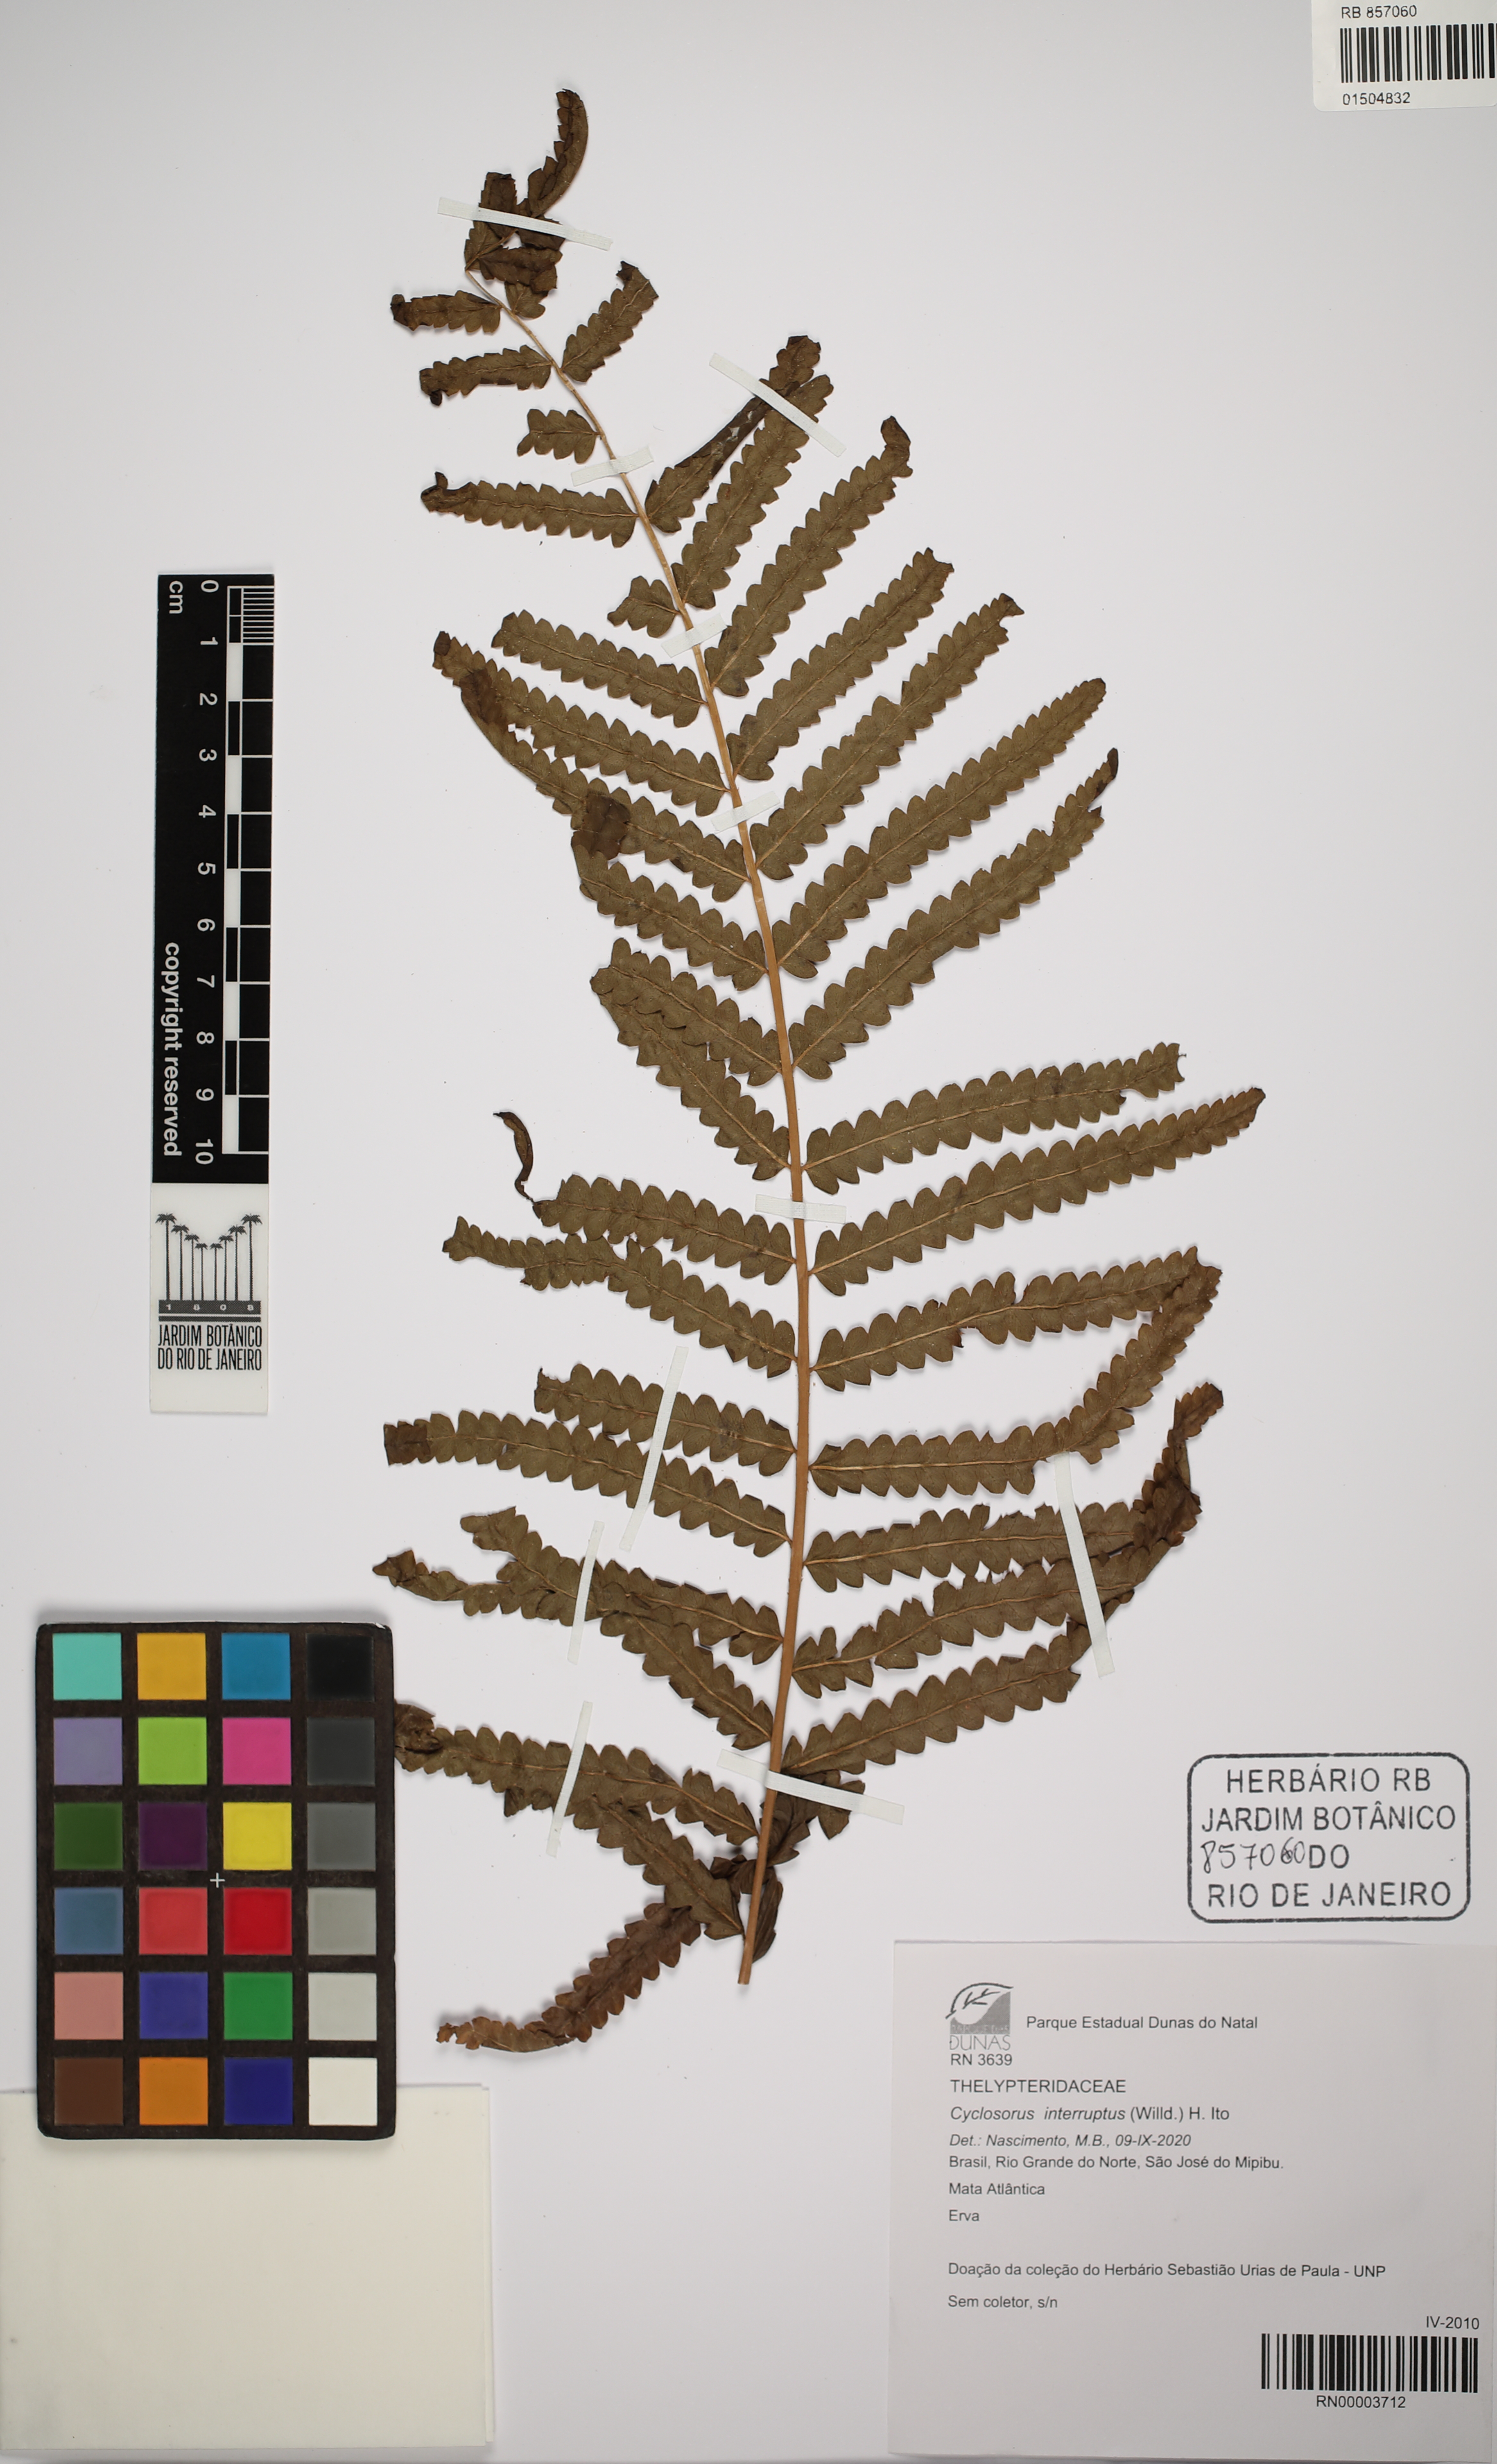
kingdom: Plantae
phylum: Tracheophyta
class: Polypodiopsida
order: Polypodiales
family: Thelypteridaceae
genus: Cyclosorus
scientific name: Cyclosorus interruptus
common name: Neke fern
